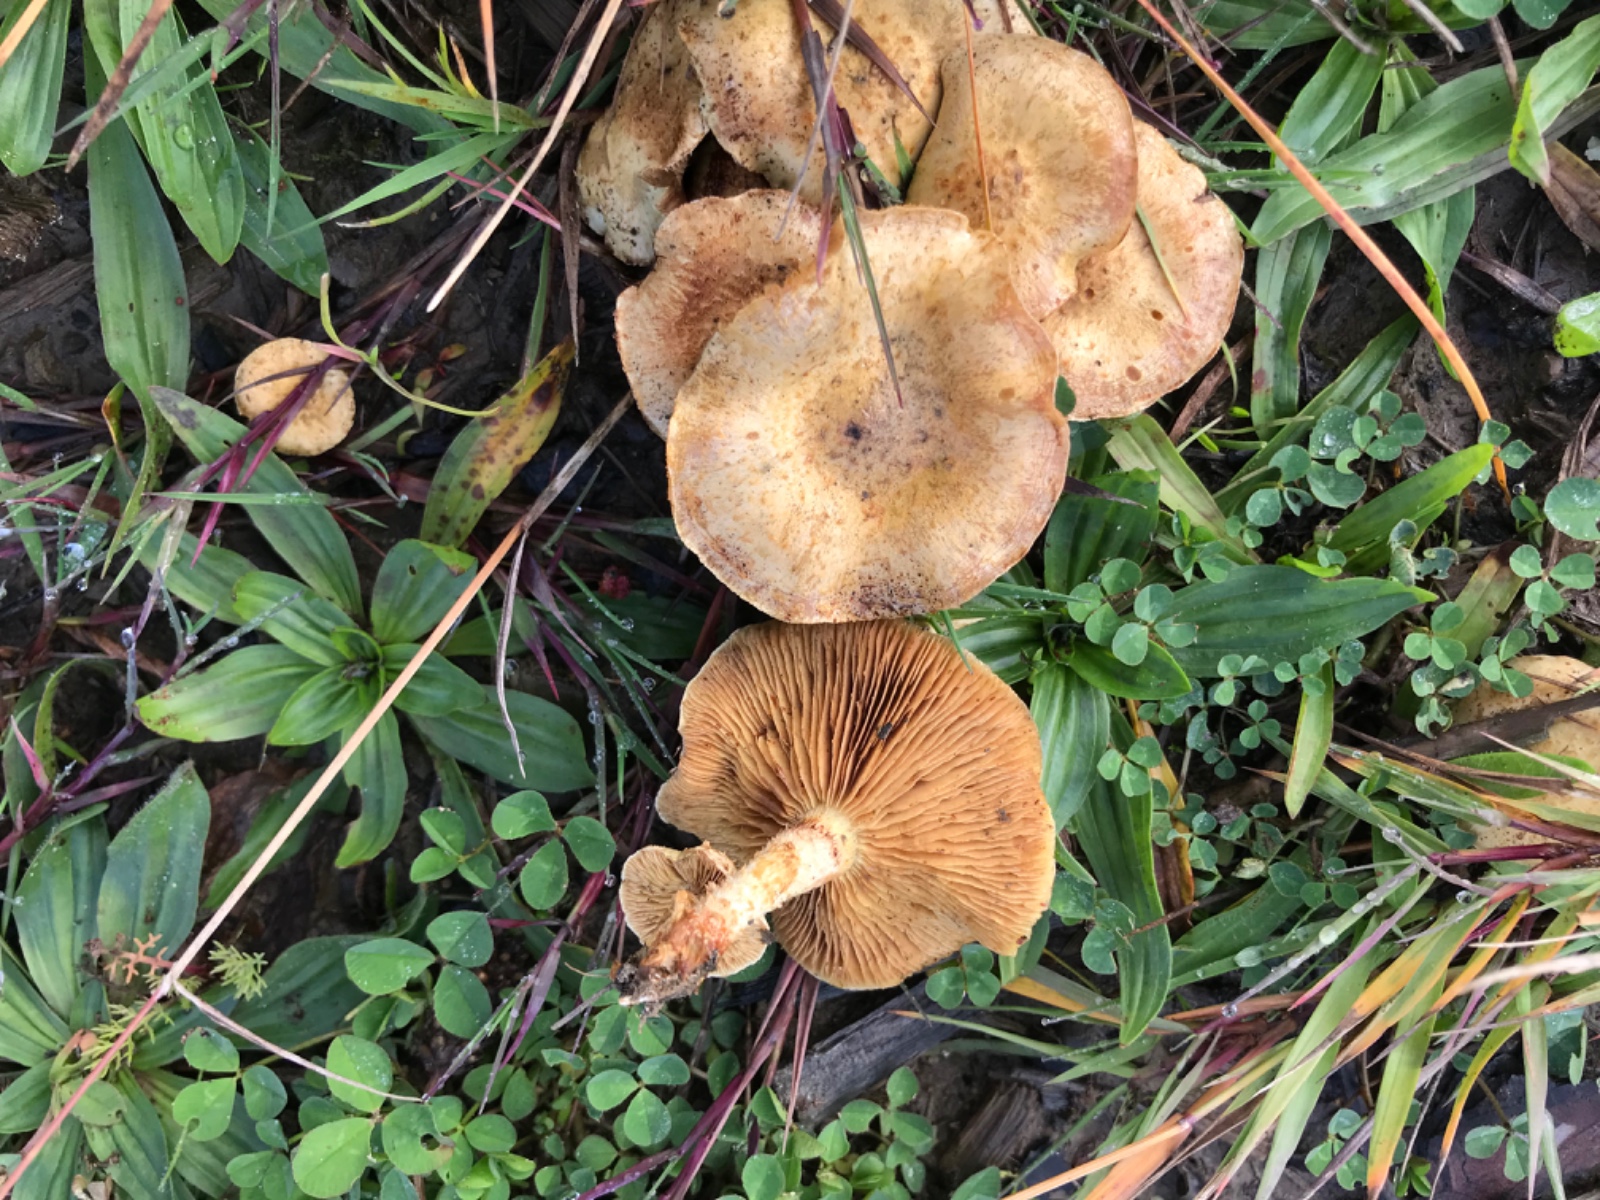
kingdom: Fungi
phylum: Basidiomycota
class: Agaricomycetes
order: Agaricales
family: Strophariaceae
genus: Pholiota
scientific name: Pholiota gummosa
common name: grøngul skælhat
